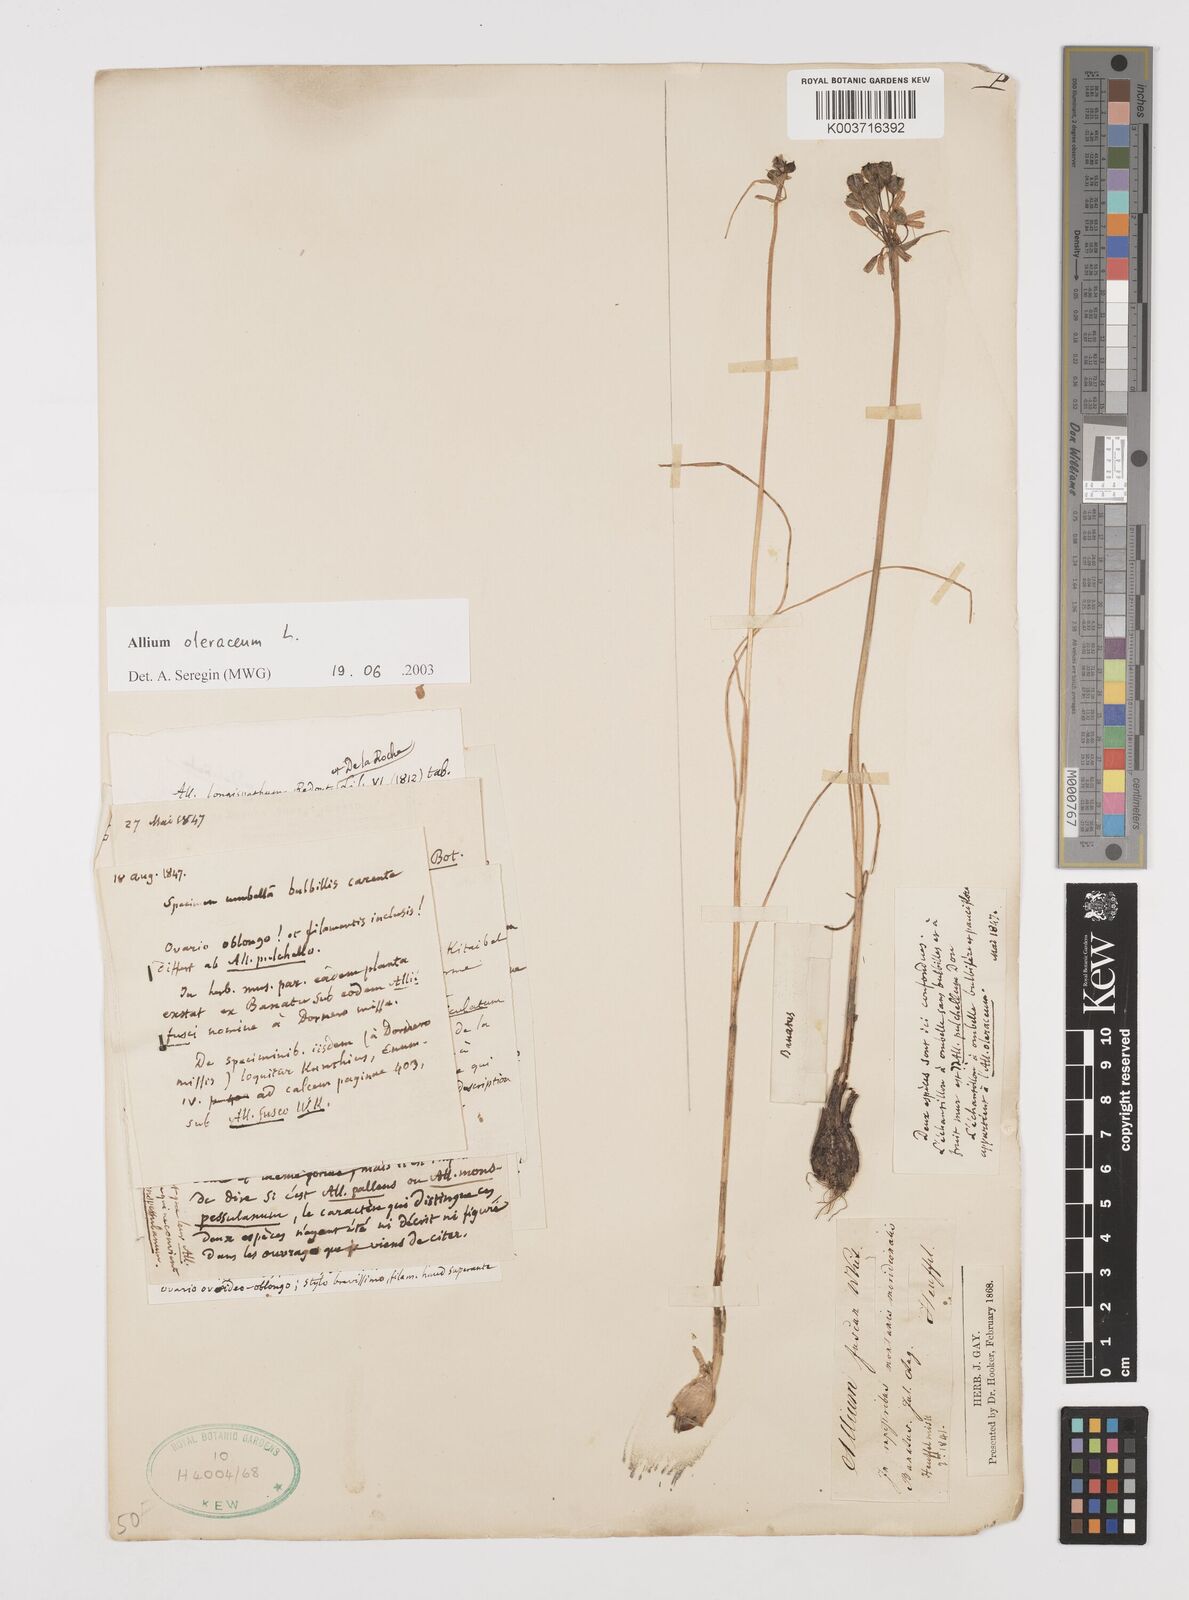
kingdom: Plantae
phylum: Tracheophyta
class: Liliopsida
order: Asparagales
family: Amaryllidaceae
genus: Allium
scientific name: Allium oleraceum
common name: Field garlic
